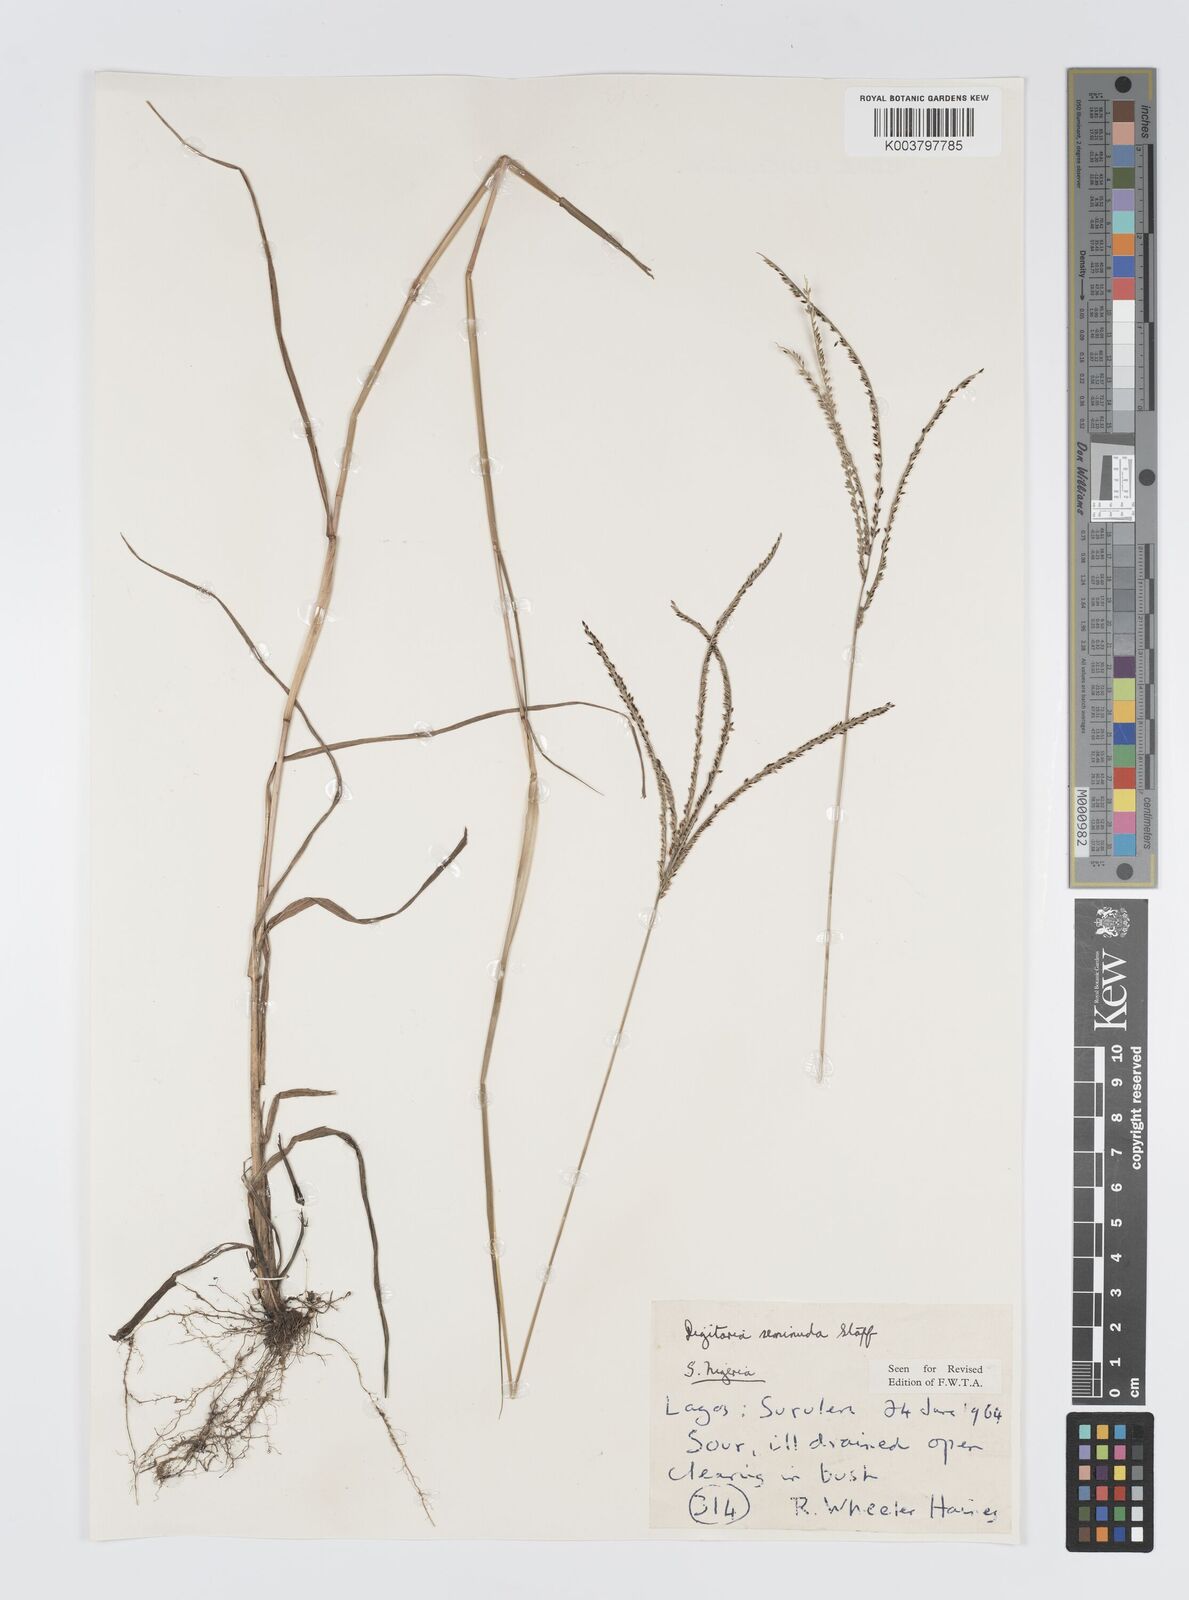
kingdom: Plantae
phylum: Tracheophyta
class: Liliopsida
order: Poales
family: Poaceae
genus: Digitaria
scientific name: Digitaria atrofusca
